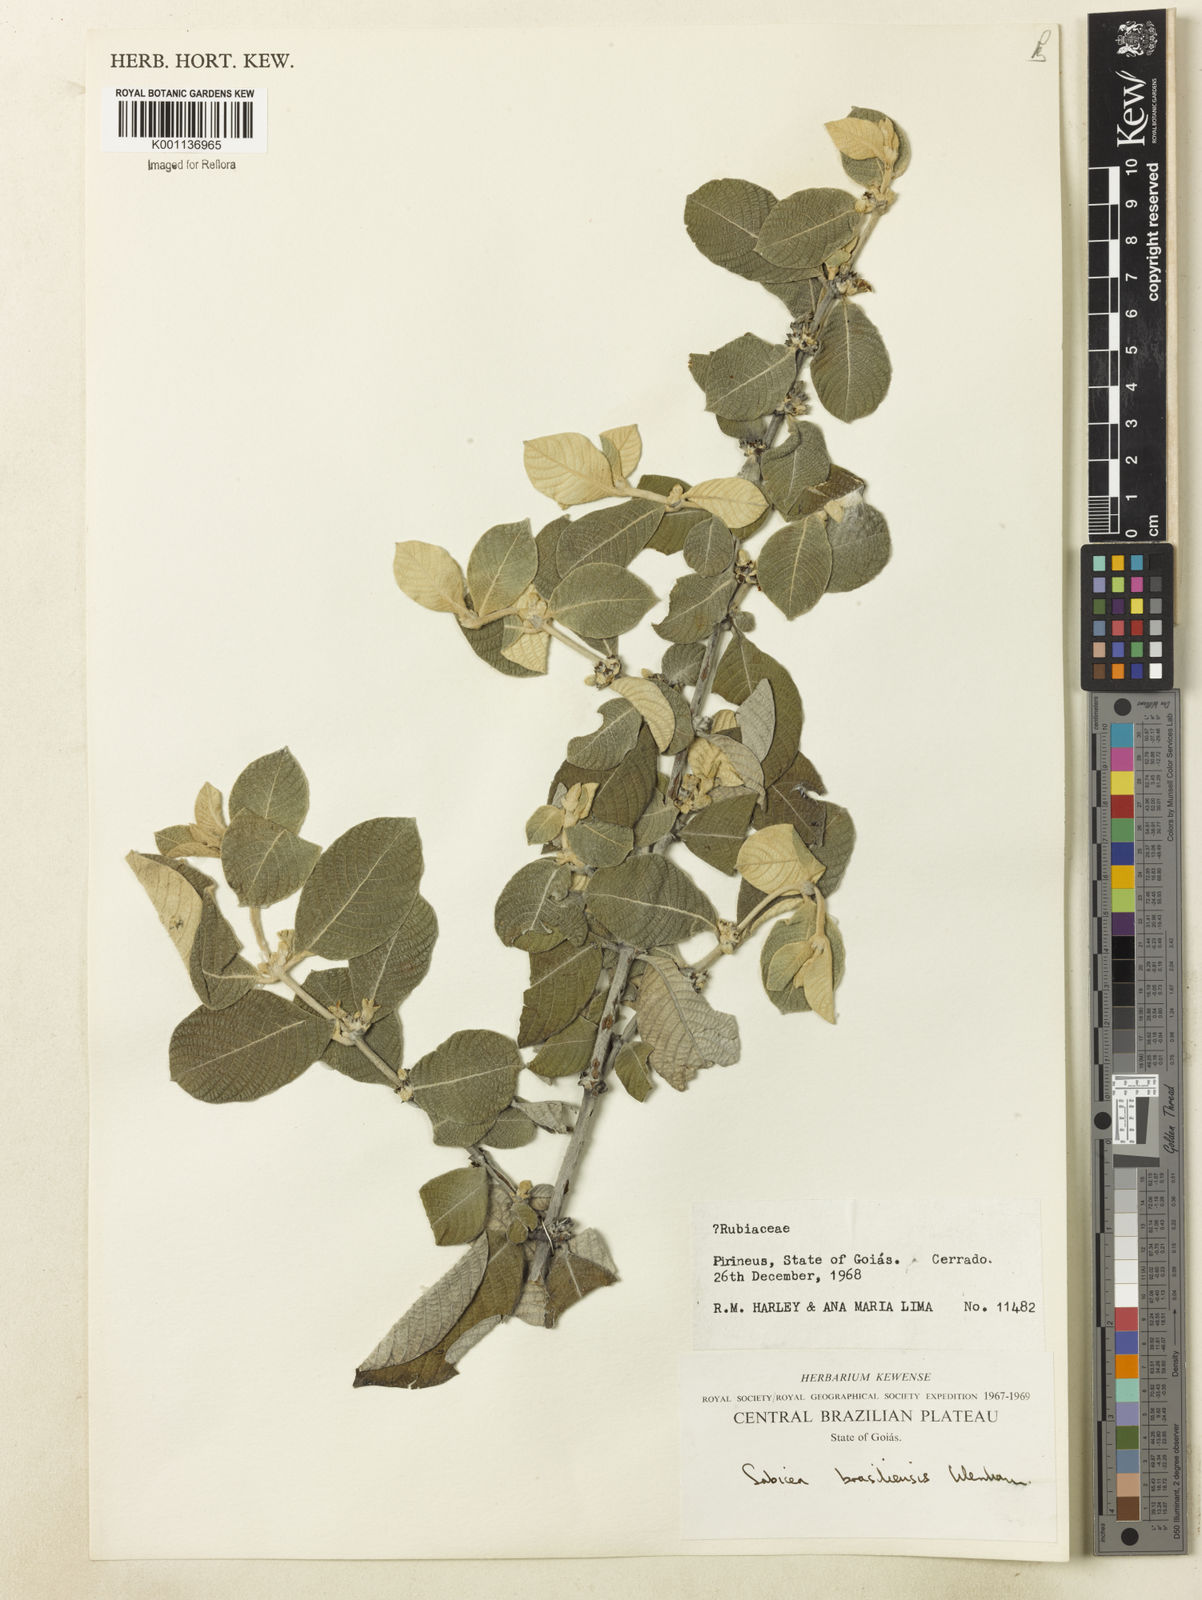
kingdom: Plantae
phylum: Tracheophyta
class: Magnoliopsida
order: Gentianales
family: Rubiaceae
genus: Sabicea
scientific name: Sabicea brasiliensis
